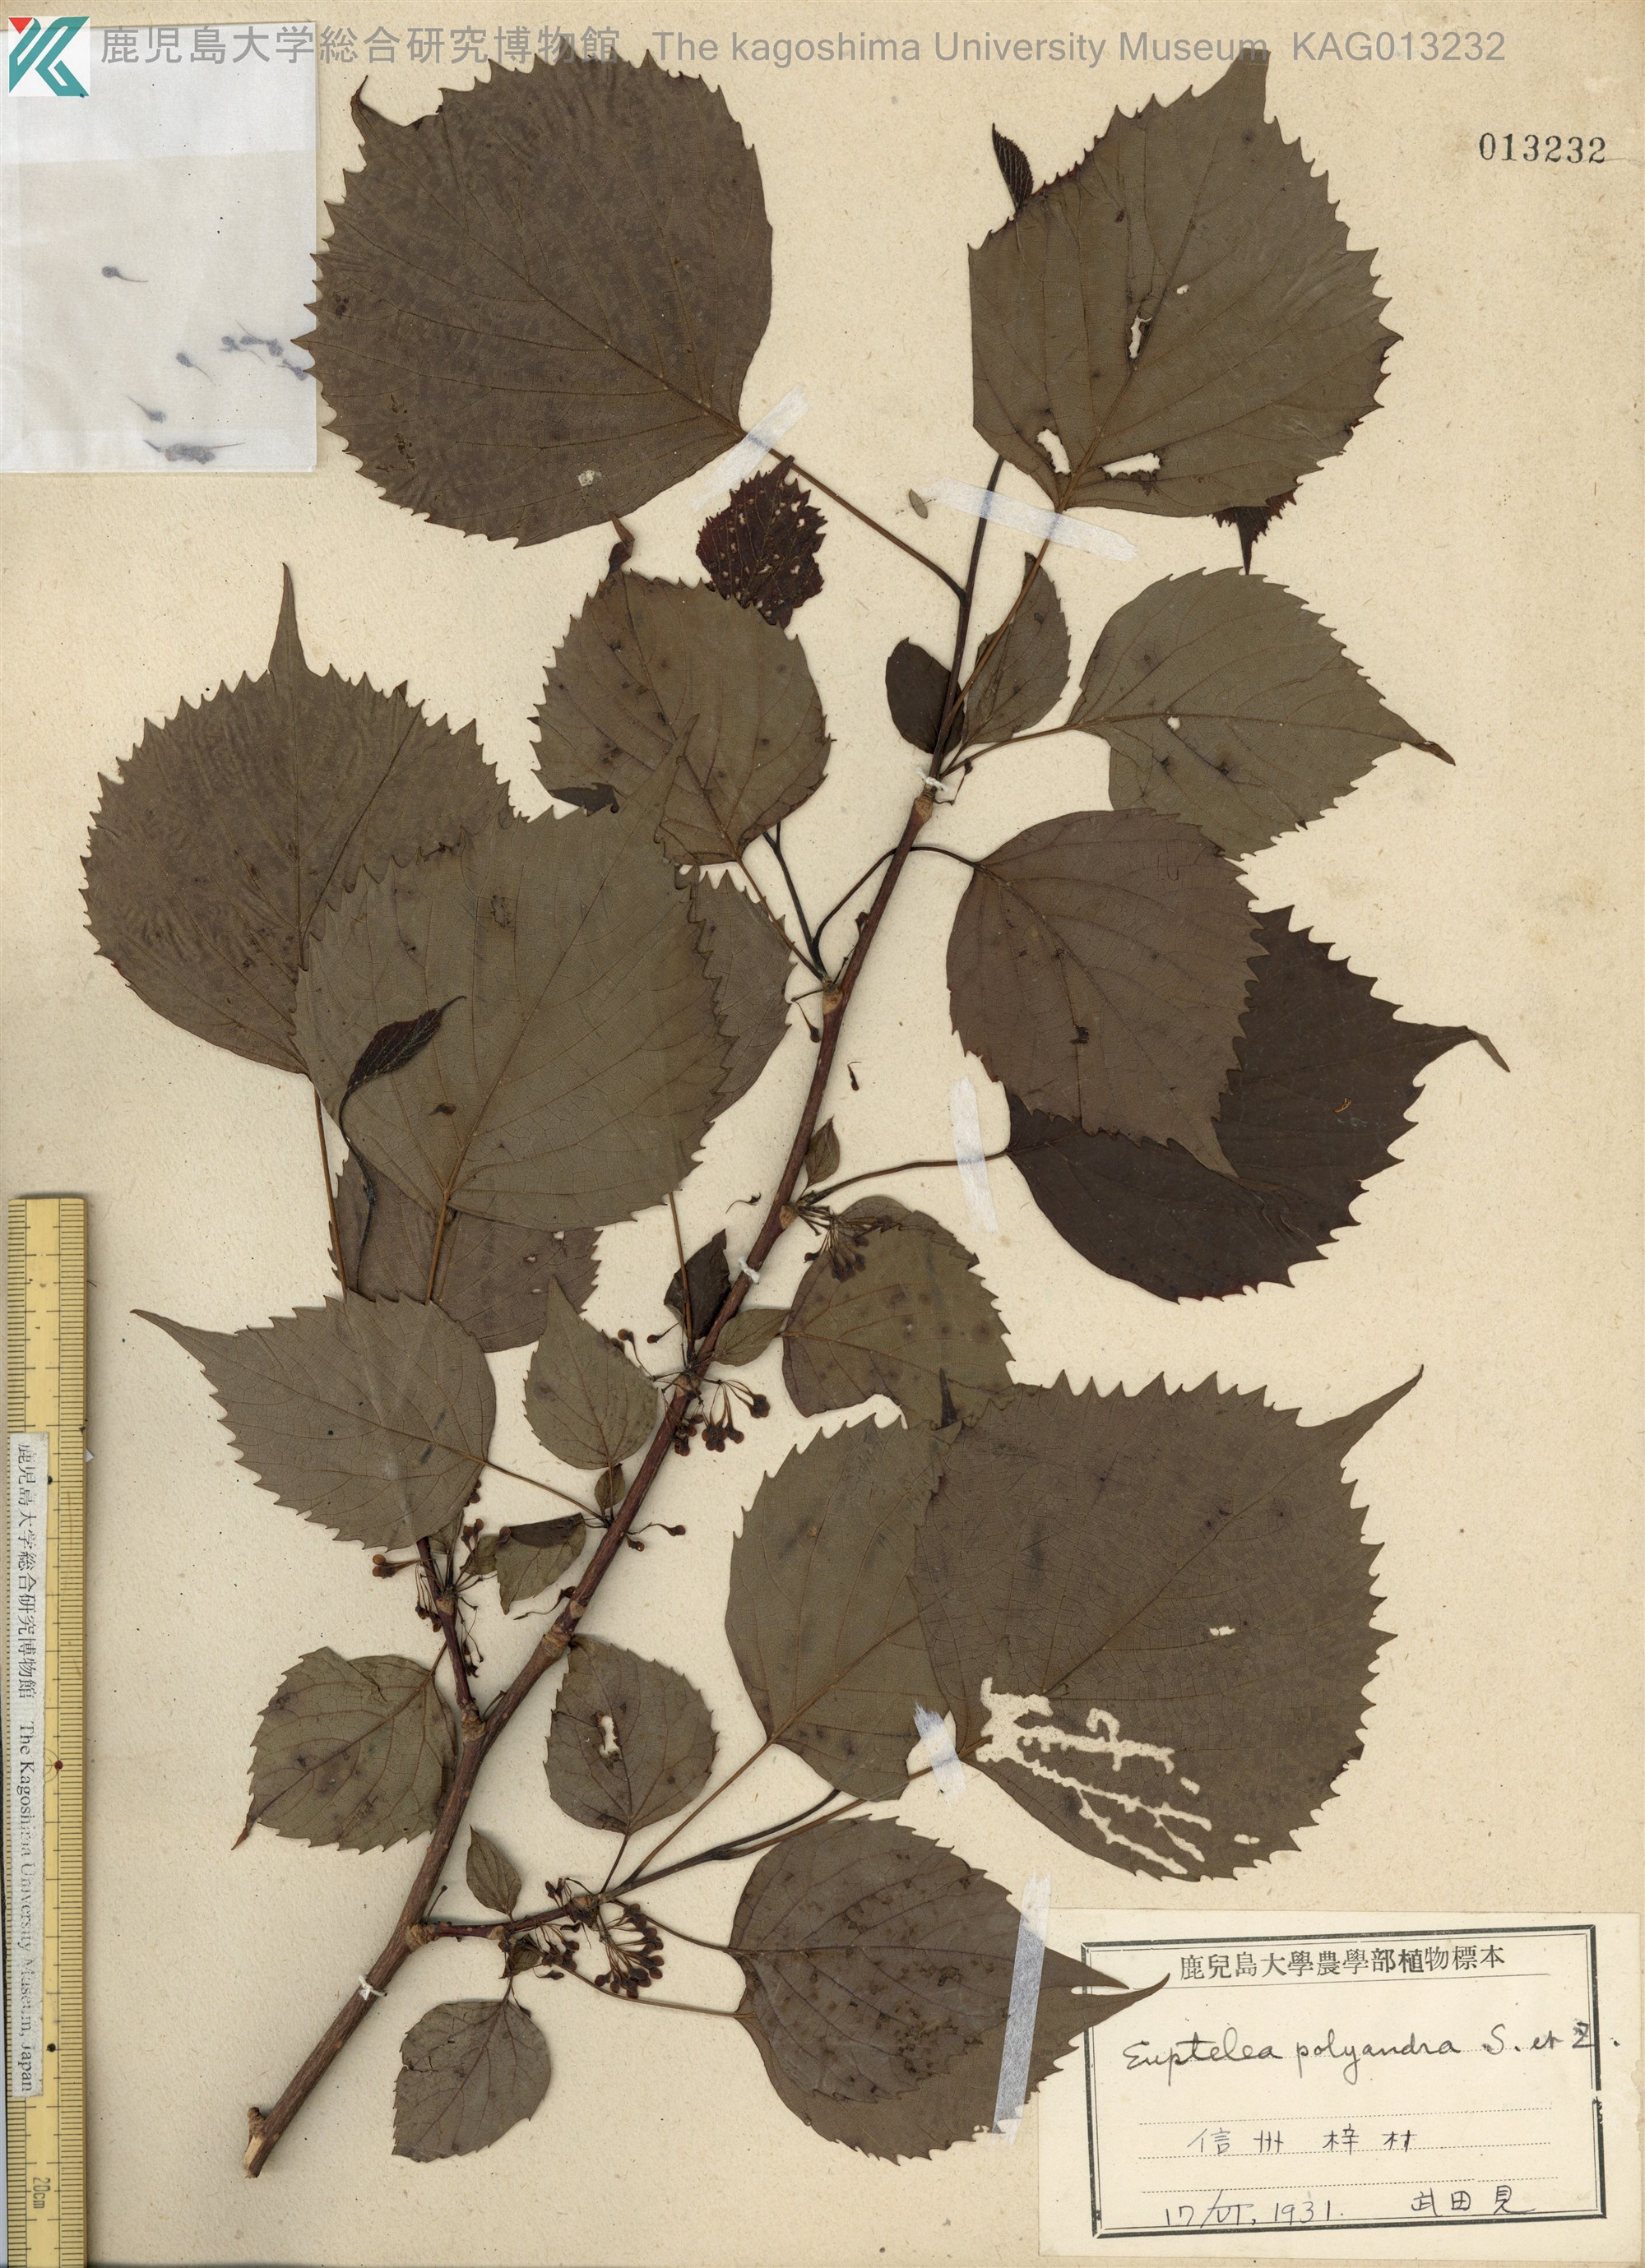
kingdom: Plantae
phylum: Tracheophyta
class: Magnoliopsida
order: Ranunculales
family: Eupteleaceae
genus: Euptelea
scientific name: Euptelea polyandra
